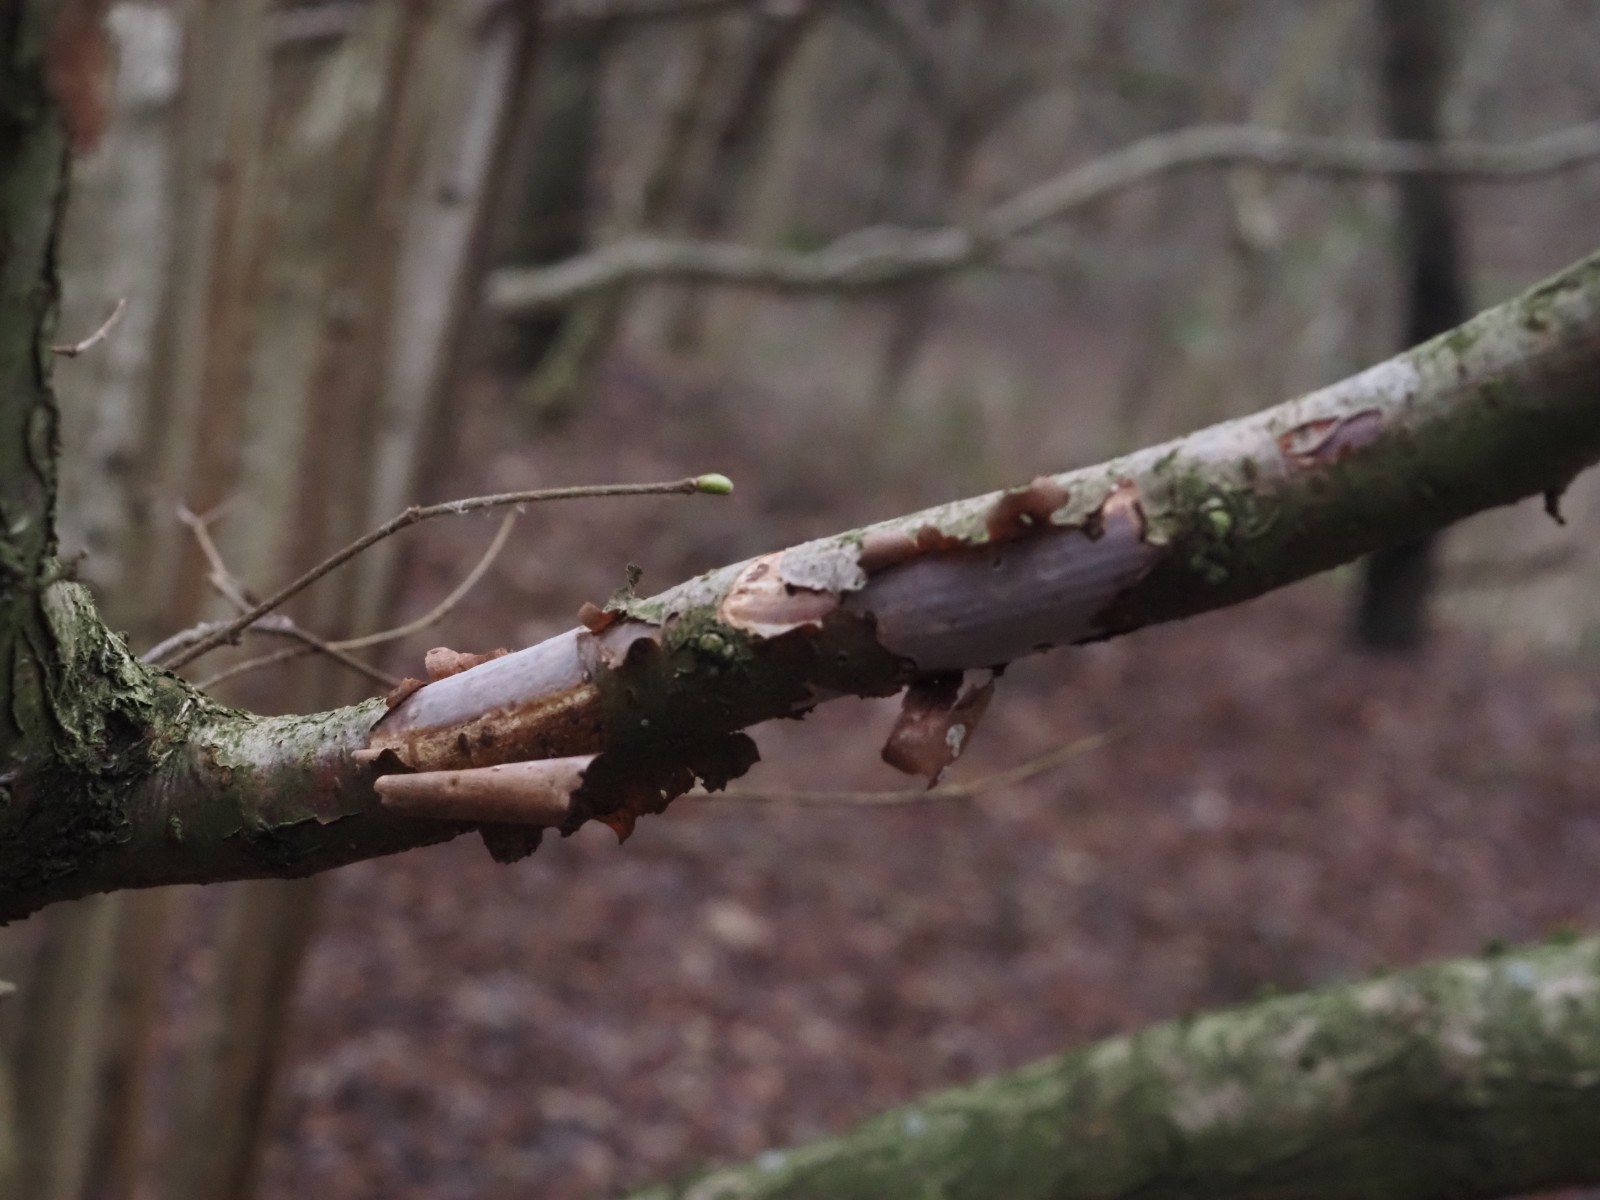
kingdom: Fungi
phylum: Basidiomycota
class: Agaricomycetes
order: Corticiales
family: Vuilleminiaceae
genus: Vuilleminia
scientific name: Vuilleminia coryli
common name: hassel-barksprænger
